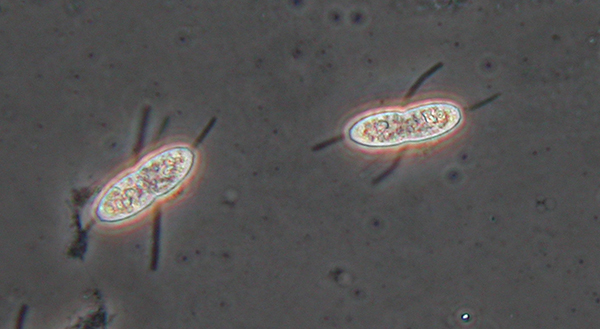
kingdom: Fungi
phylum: Ascomycota
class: Sordariomycetes
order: Diaporthales
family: Sydowiellaceae
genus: Caudospora
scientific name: Caudospora taleola
